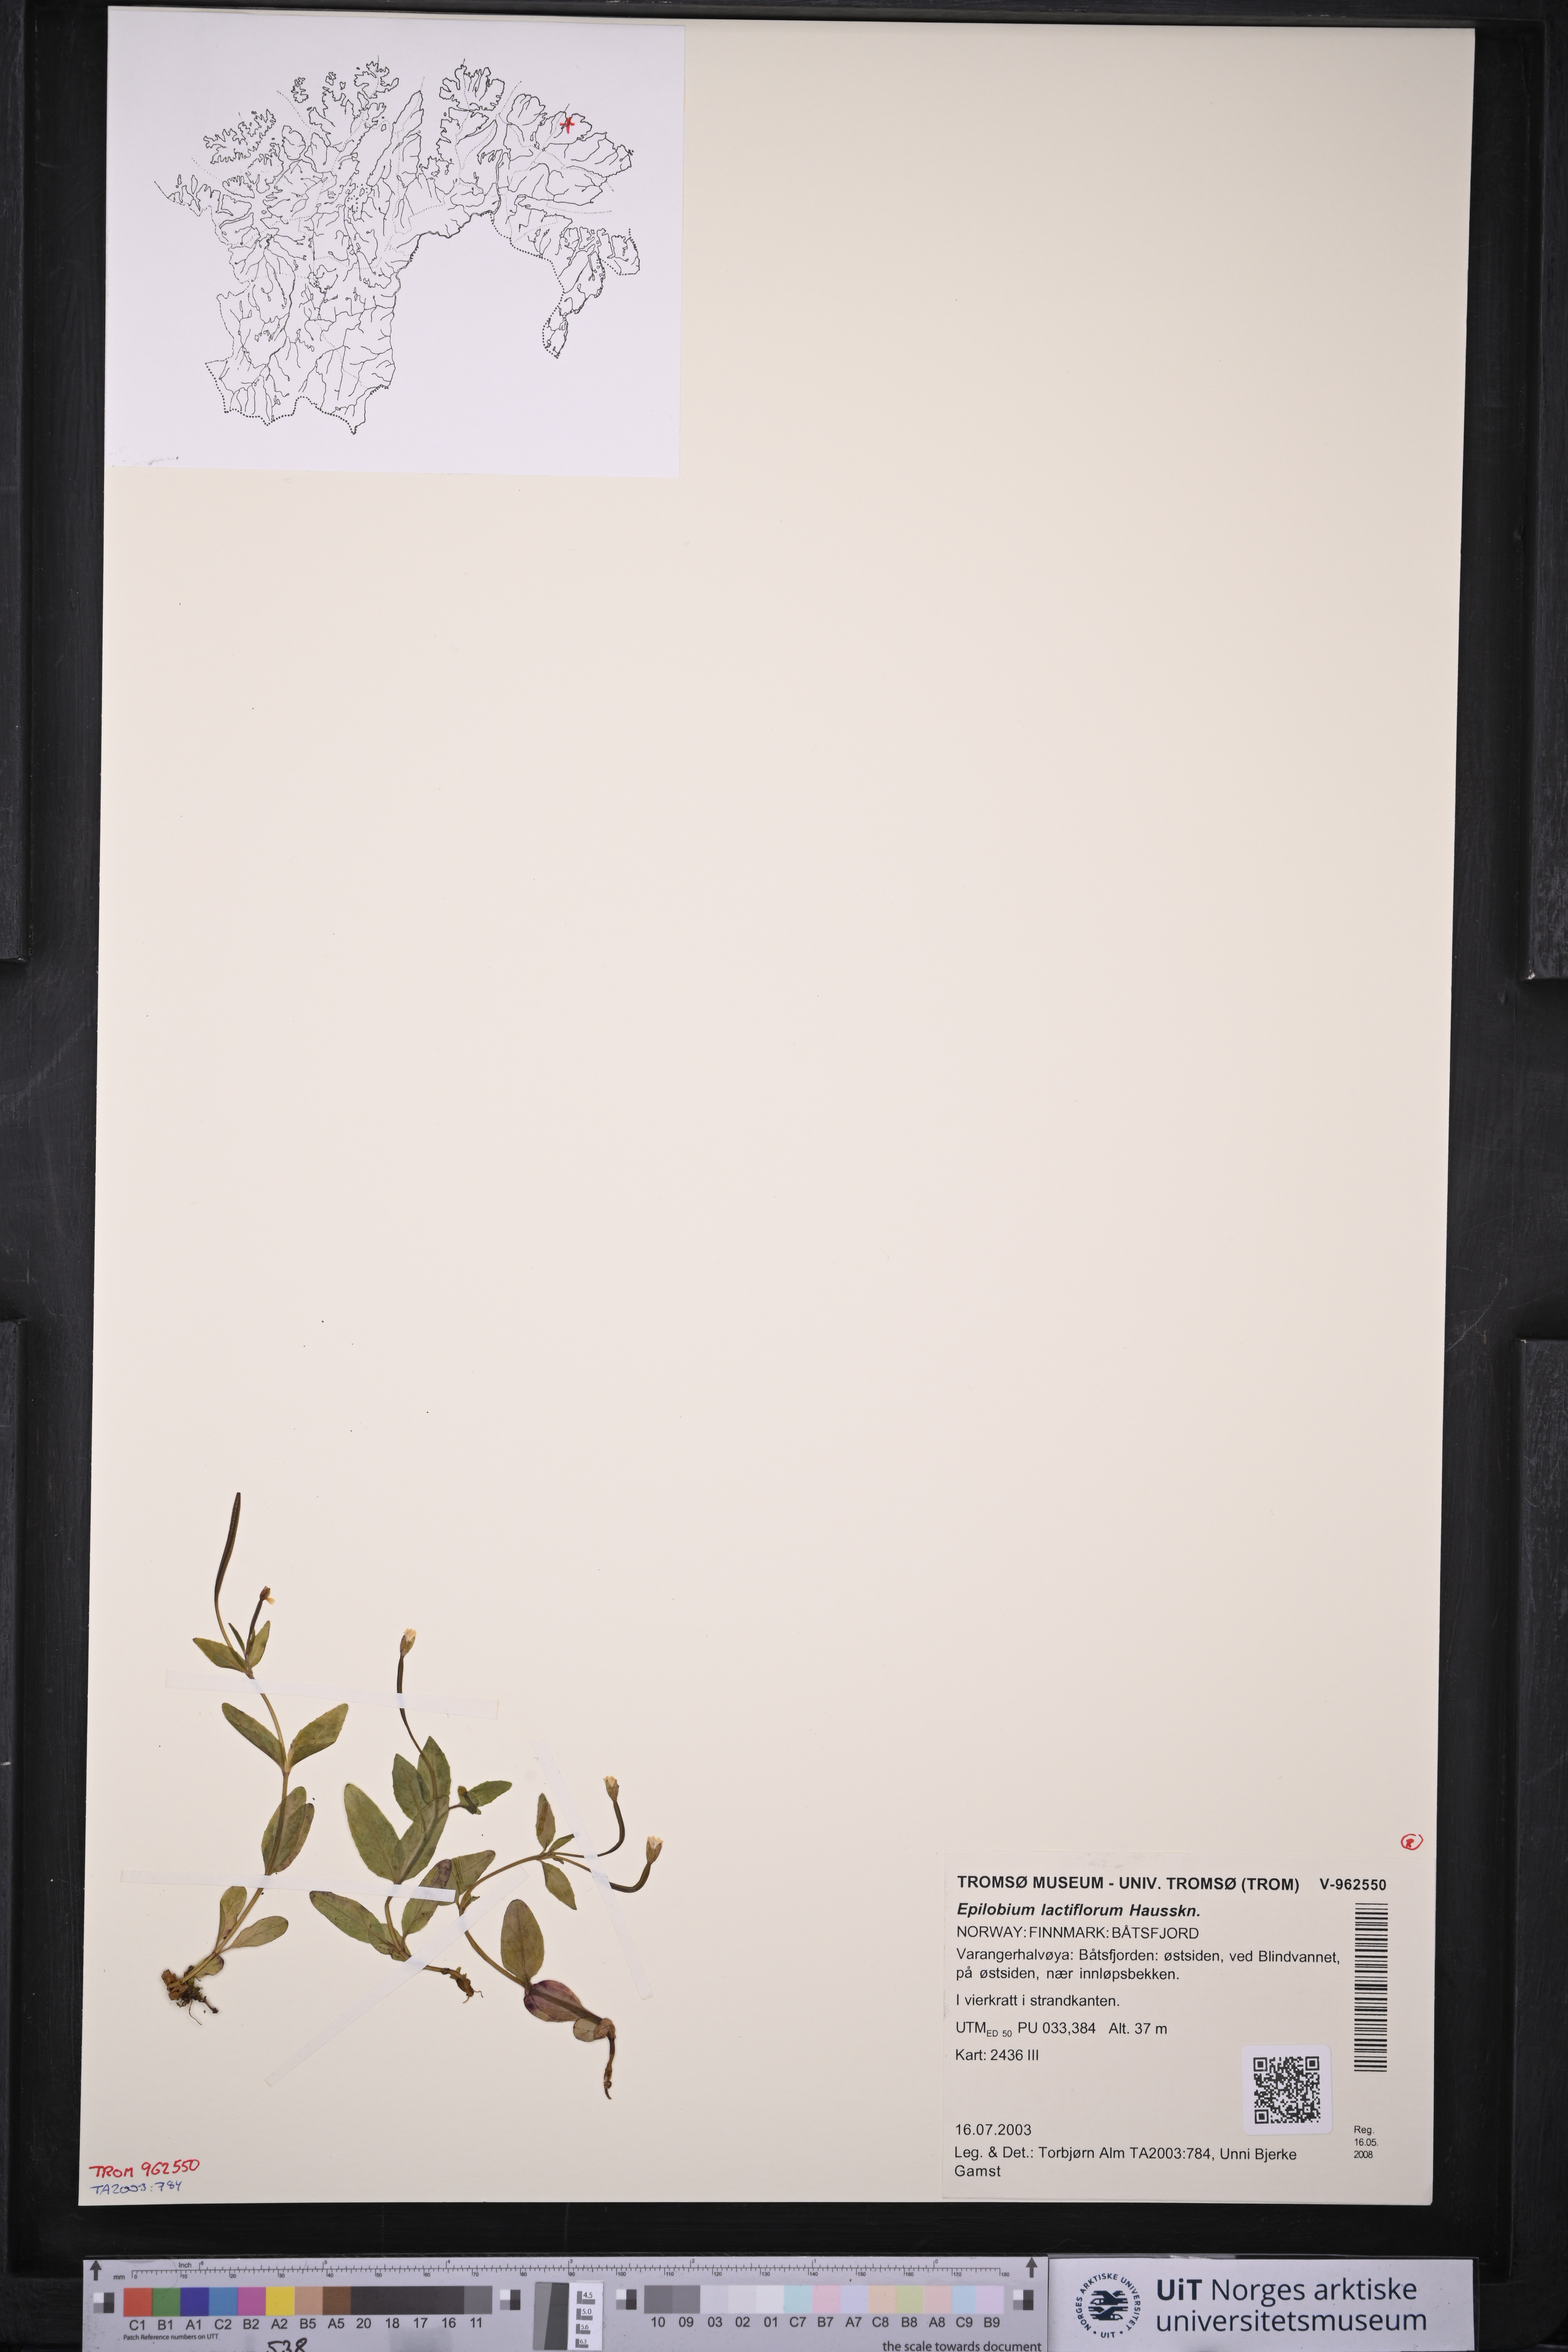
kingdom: Plantae
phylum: Tracheophyta
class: Magnoliopsida
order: Myrtales
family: Onagraceae
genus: Epilobium
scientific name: Epilobium lactiflorum
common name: Milkflower willowherb
